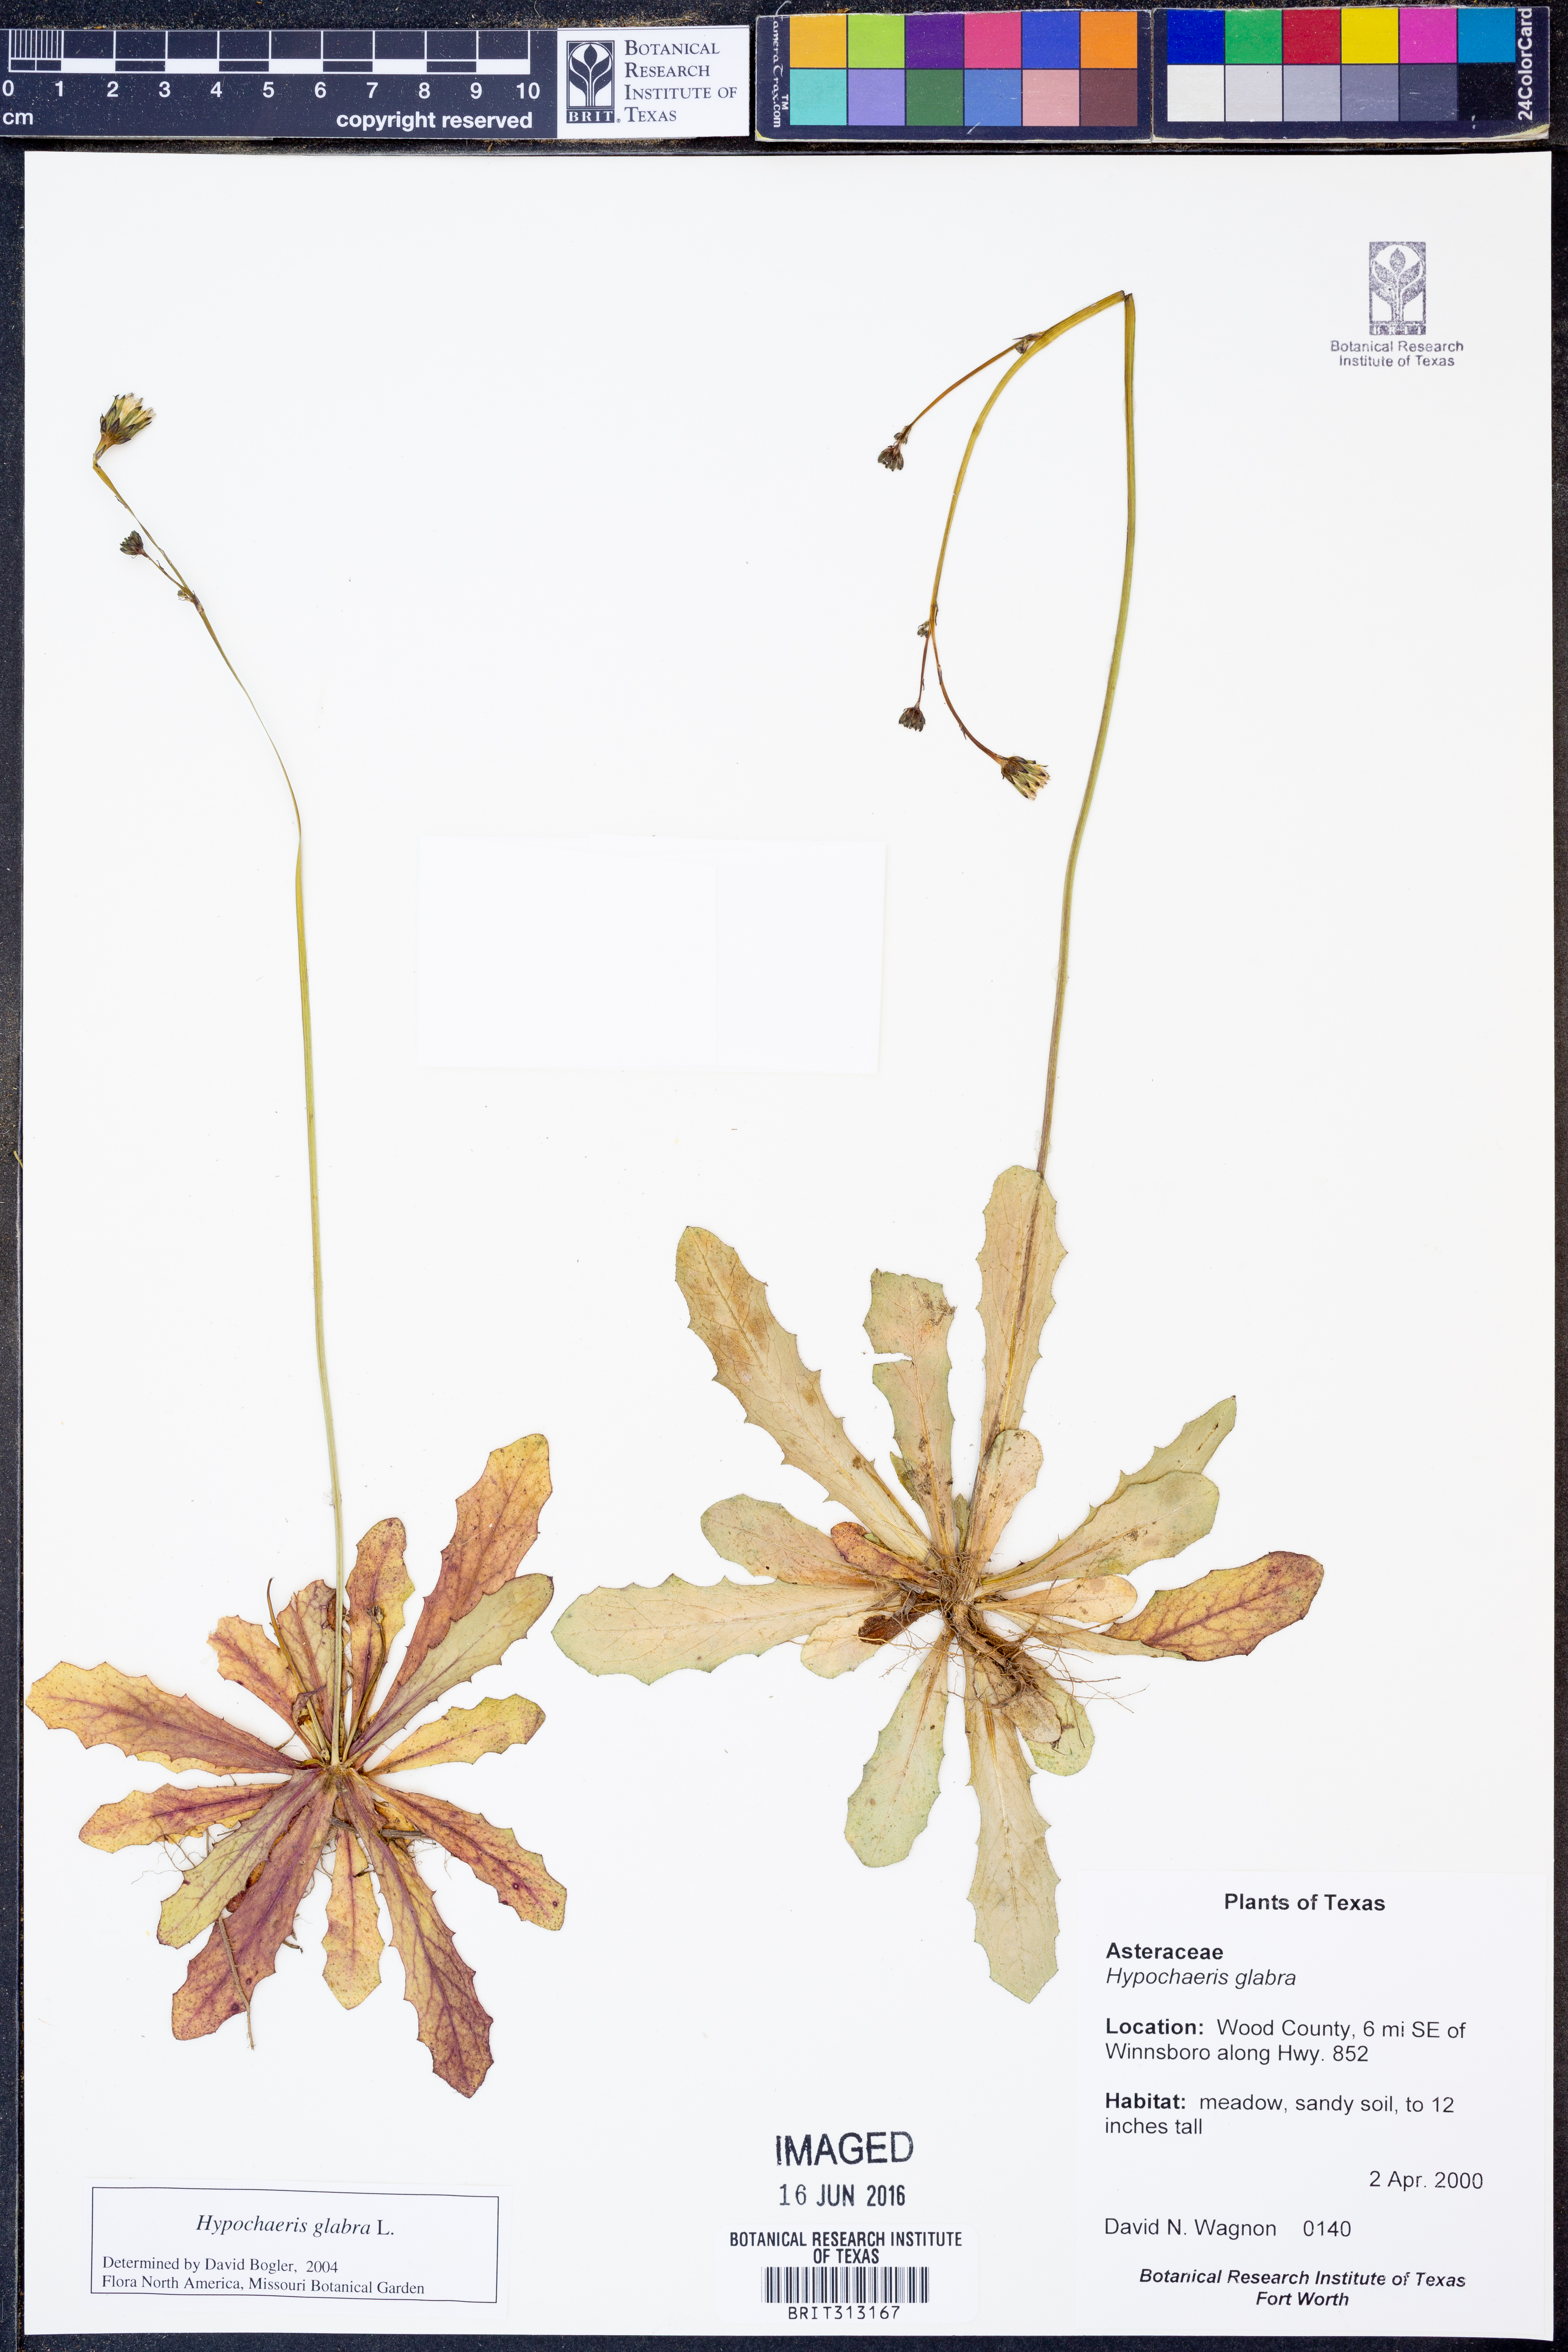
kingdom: Plantae
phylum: Tracheophyta
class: Magnoliopsida
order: Asterales
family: Asteraceae
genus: Hypochaeris
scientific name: Hypochaeris glabra
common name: Smooth catsear
